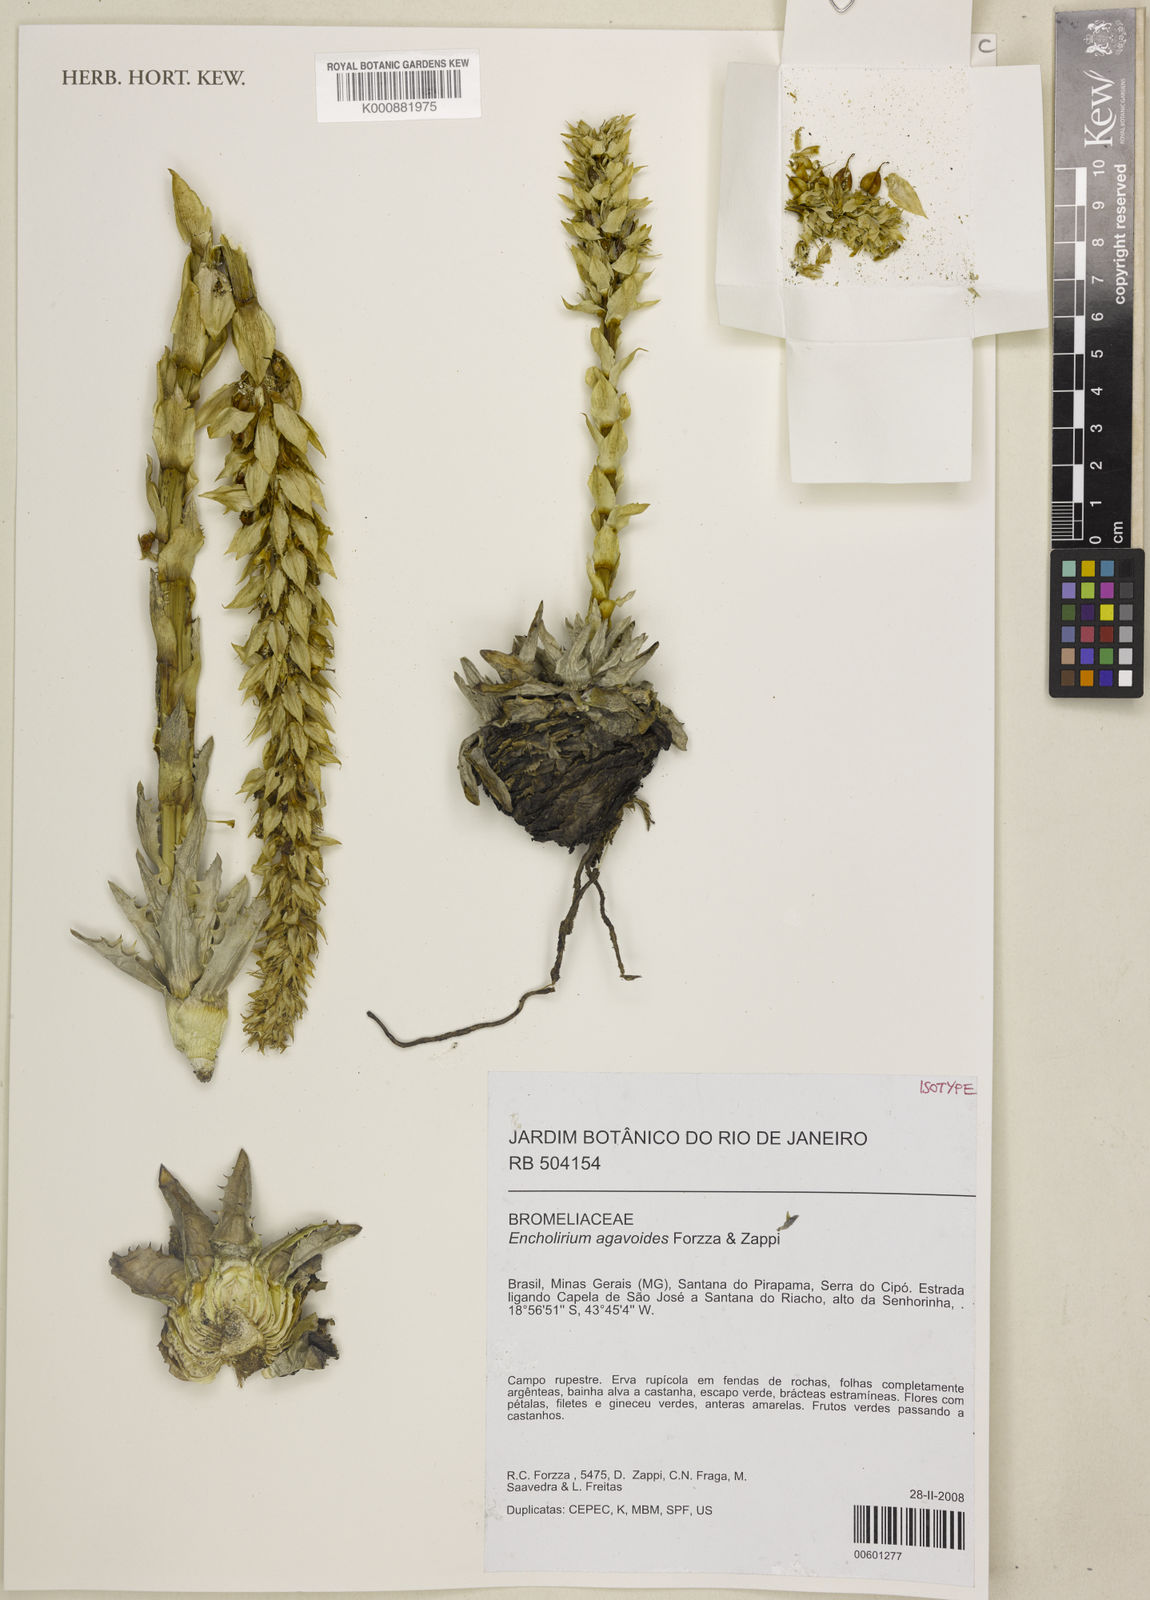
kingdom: Plantae
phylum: Tracheophyta
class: Liliopsida
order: Poales
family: Bromeliaceae
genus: Encholirium
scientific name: Encholirium agavoides
